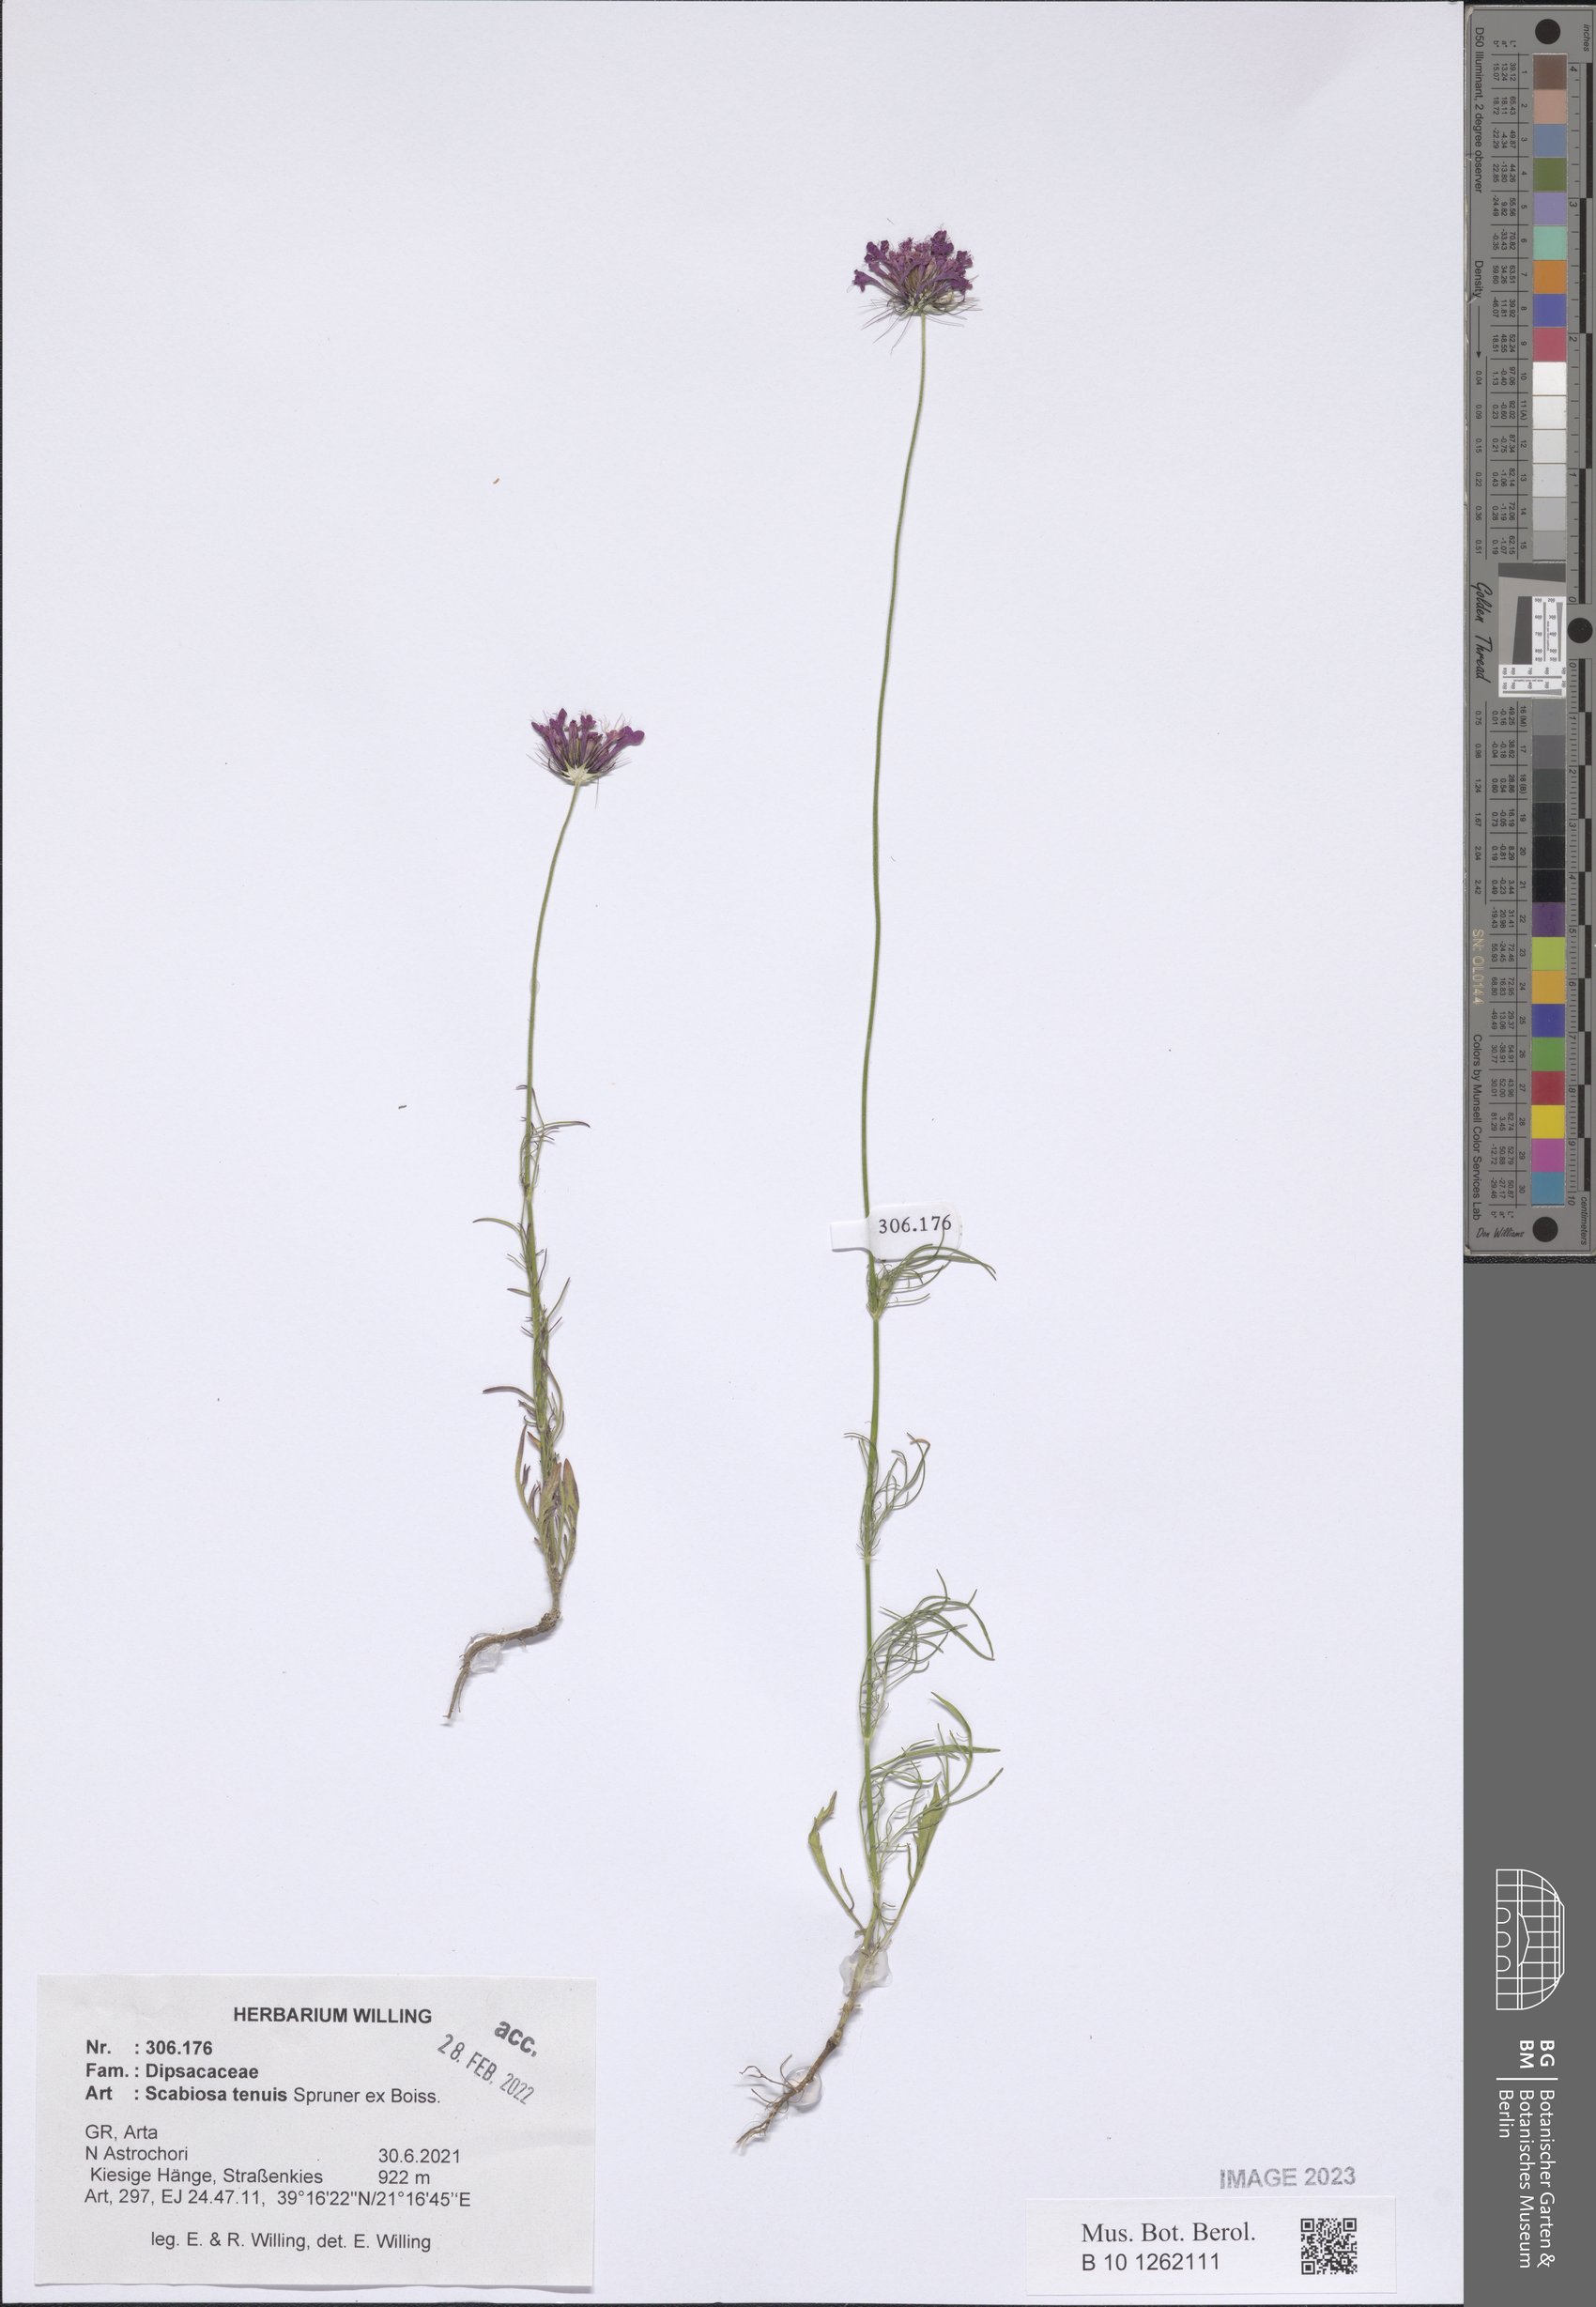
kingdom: Plantae
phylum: Tracheophyta
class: Magnoliopsida
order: Dipsacales
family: Caprifoliaceae
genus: Scabiosa
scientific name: Scabiosa tenuis
